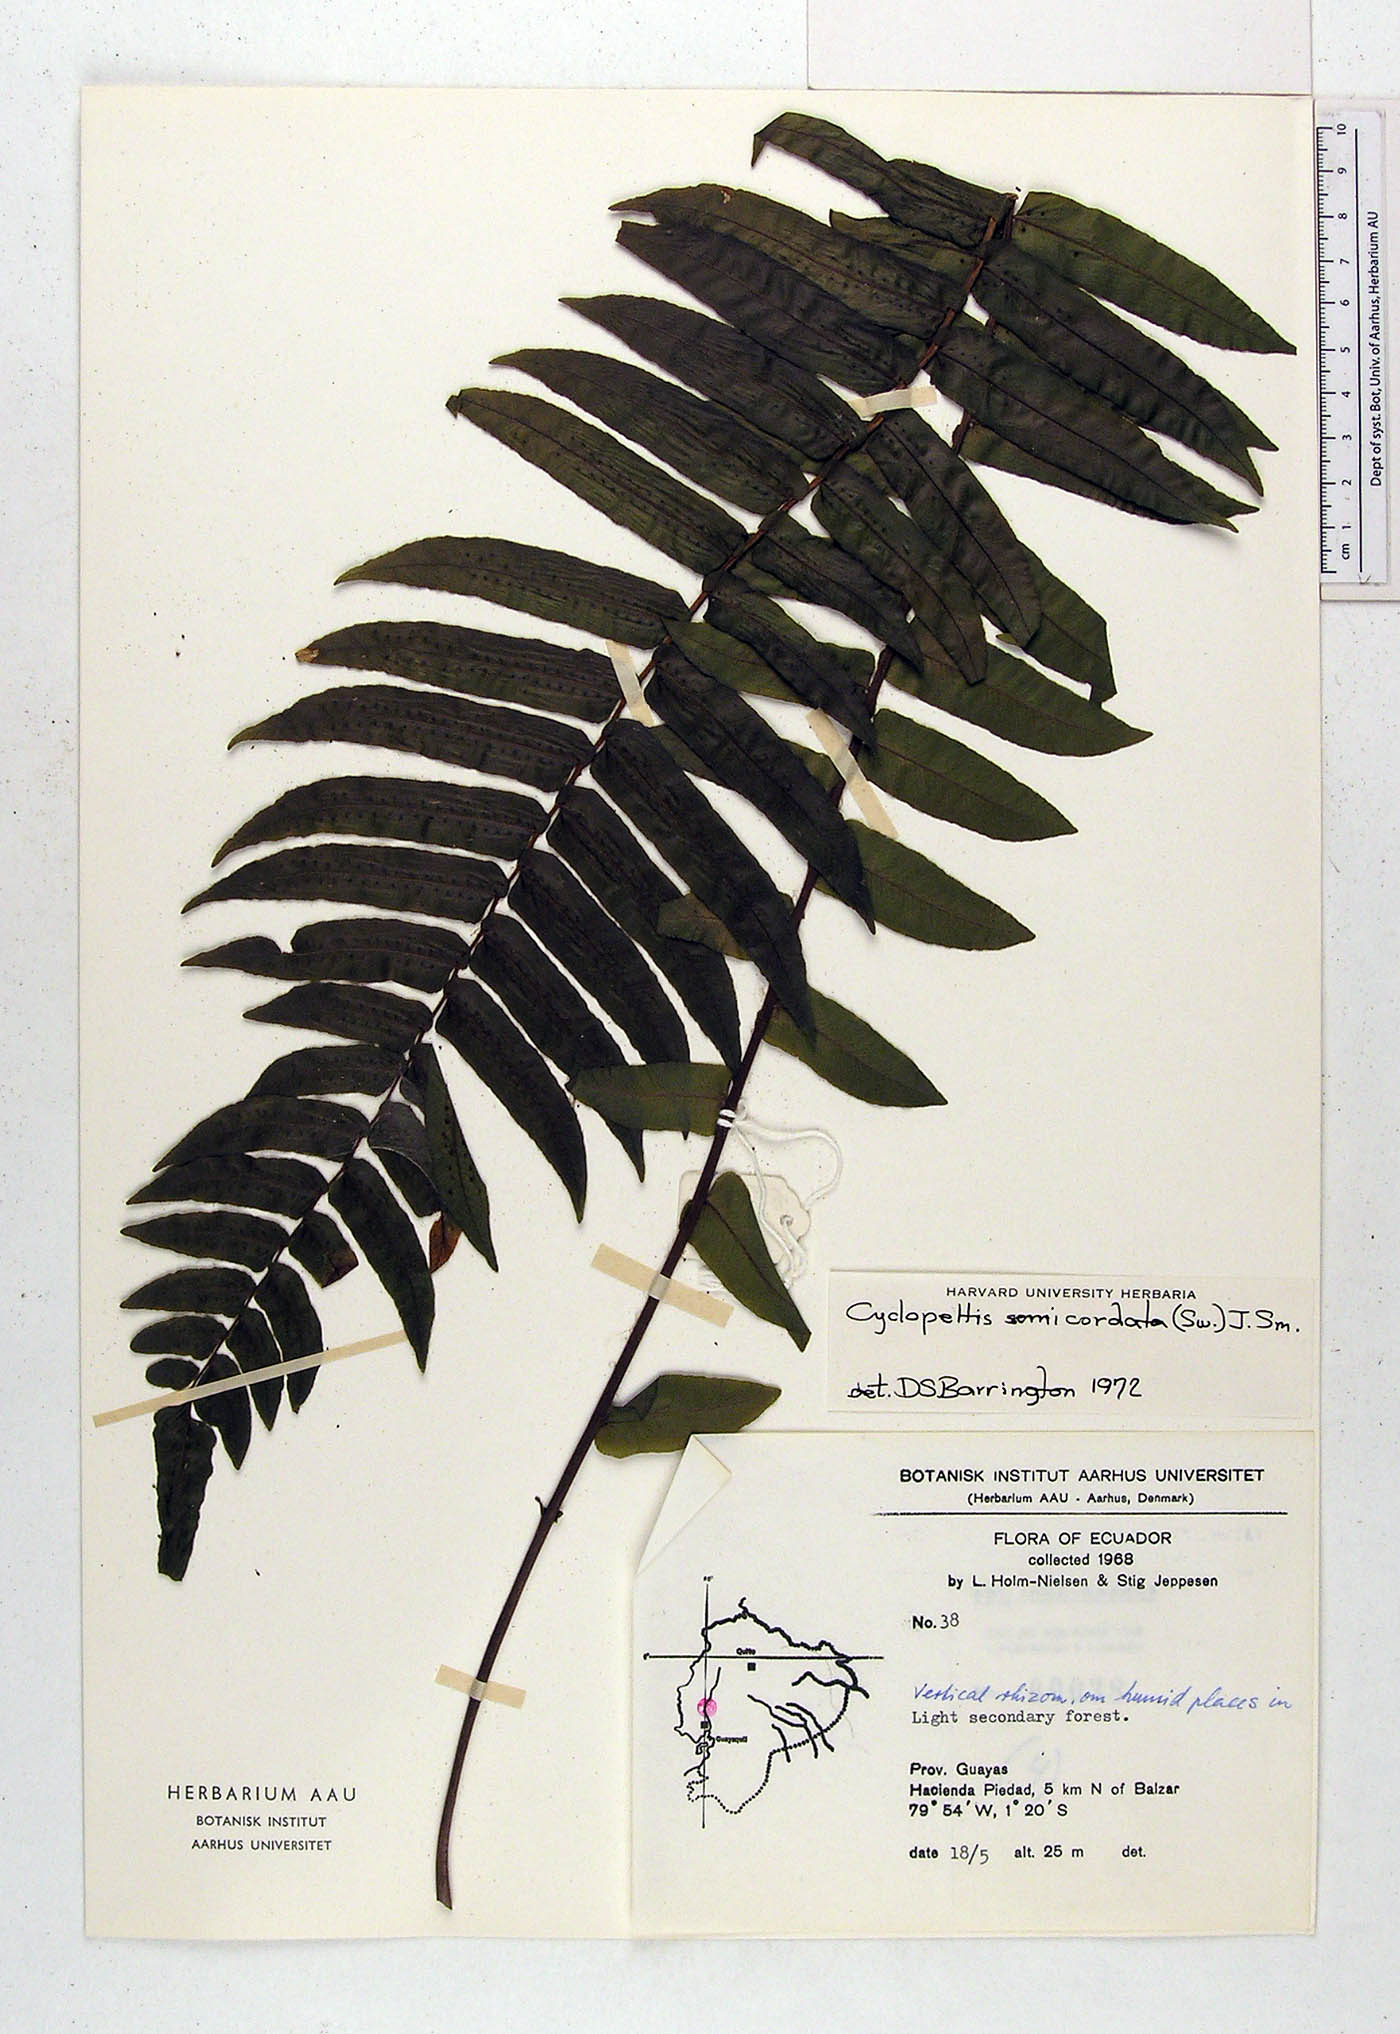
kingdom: Plantae
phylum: Tracheophyta
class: Polypodiopsida
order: Polypodiales
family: Lomariopsidaceae
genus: Cyclopeltis
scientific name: Cyclopeltis semicordata
